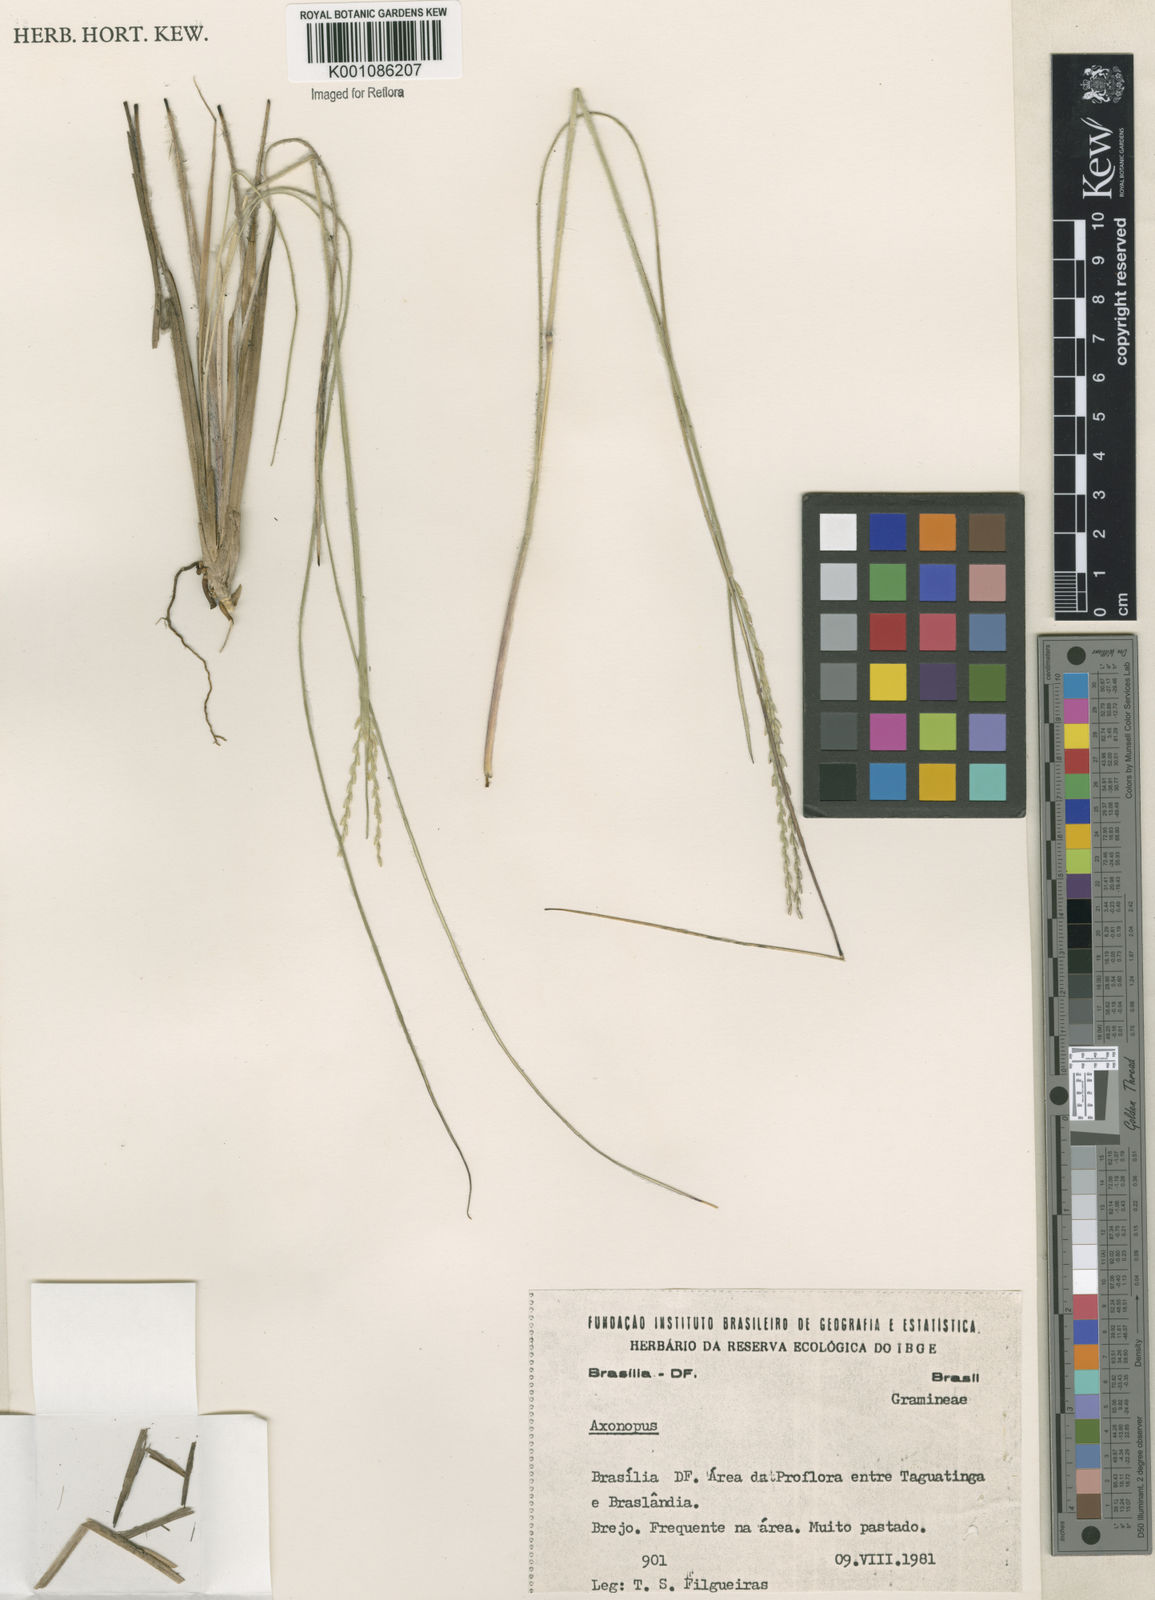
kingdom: Plantae
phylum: Tracheophyta
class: Liliopsida
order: Poales
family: Poaceae
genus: Axonopus
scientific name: Axonopus
